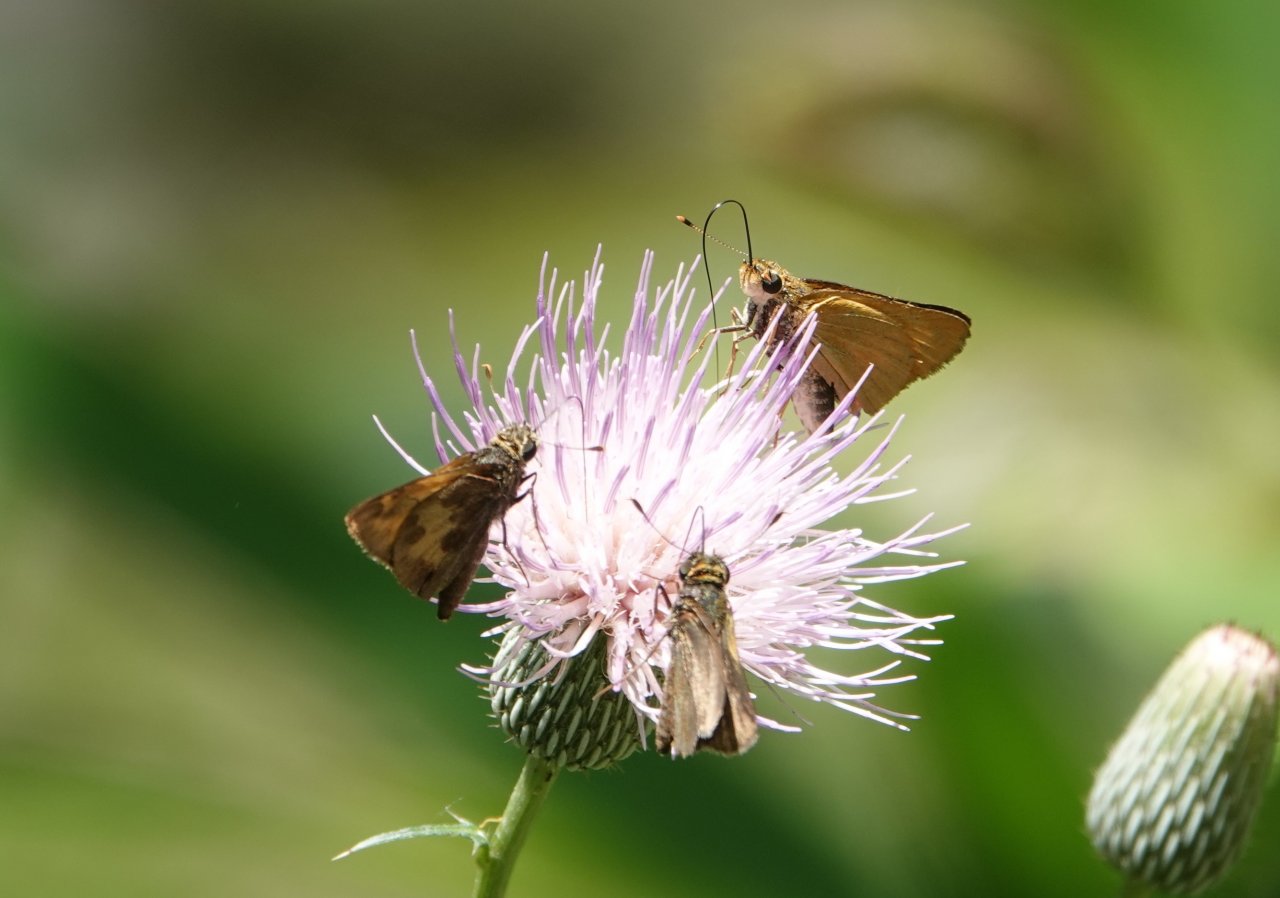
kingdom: Animalia
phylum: Arthropoda
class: Insecta
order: Lepidoptera
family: Hesperiidae
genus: Polites
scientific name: Polites vibex
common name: Whirlabout
